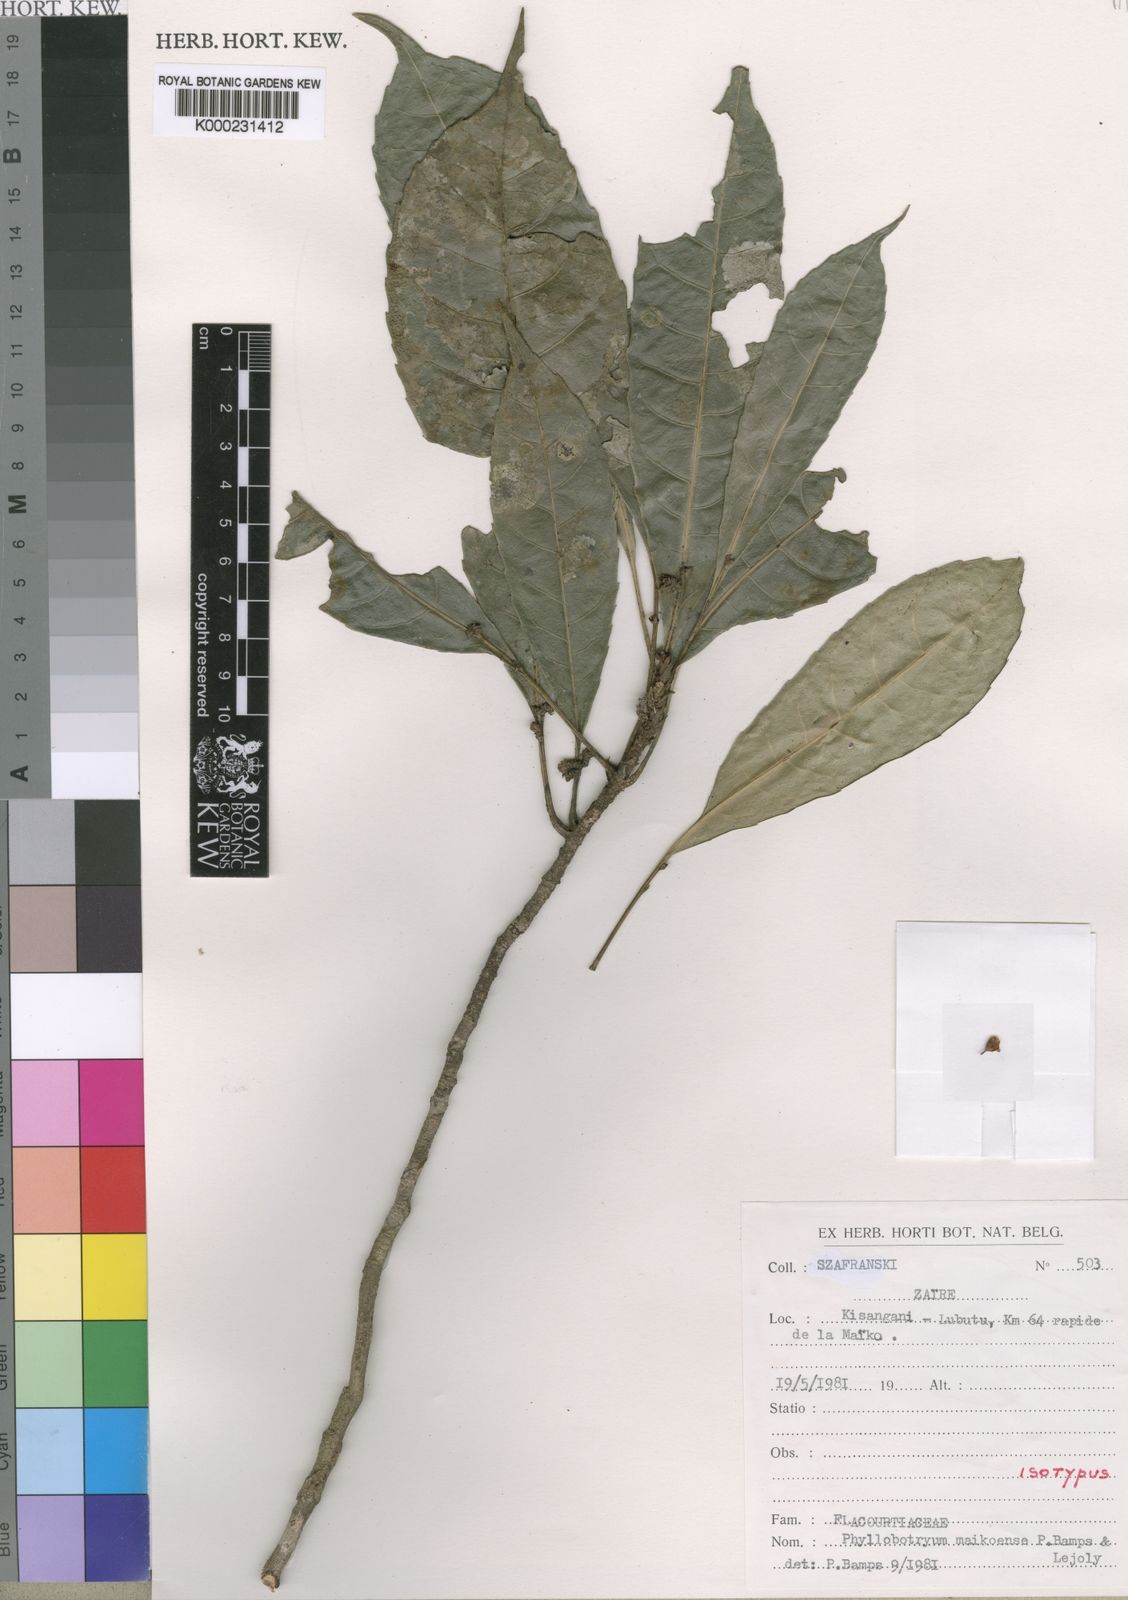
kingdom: Plantae
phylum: Tracheophyta
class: Magnoliopsida
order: Malpighiales
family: Salicaceae
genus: Phyllobotryon
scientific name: Phyllobotryon maikoense
